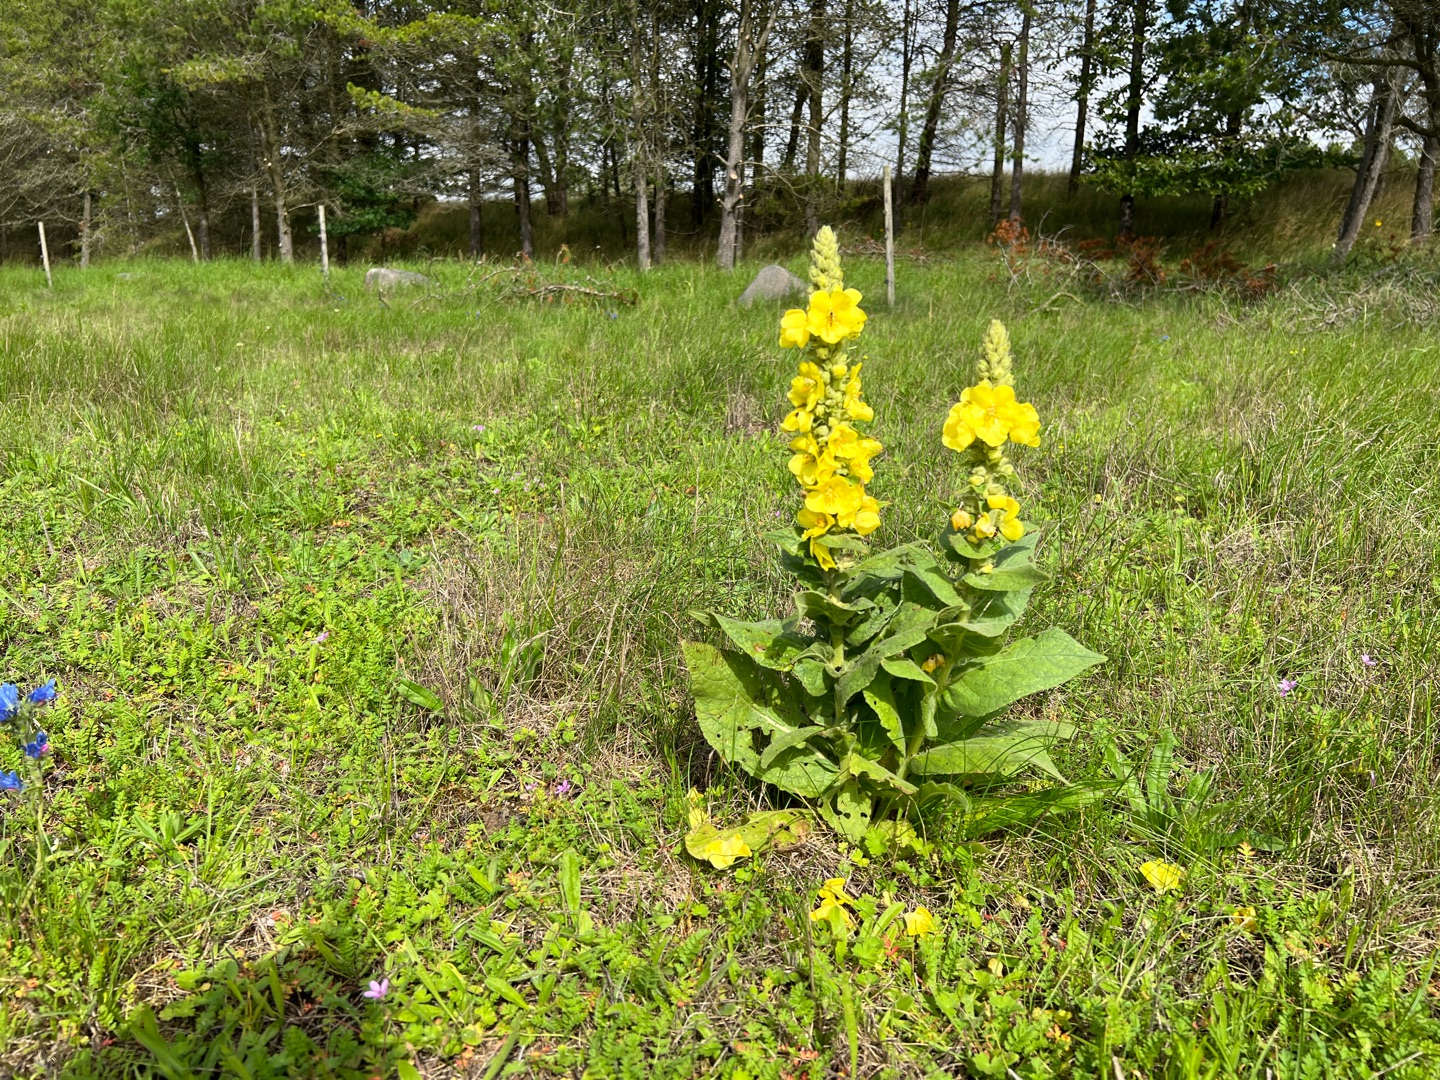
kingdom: Plantae
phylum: Tracheophyta
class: Magnoliopsida
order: Lamiales
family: Scrophulariaceae
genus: Verbascum
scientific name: Verbascum phlomoides
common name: Hjertebladet kongelys
